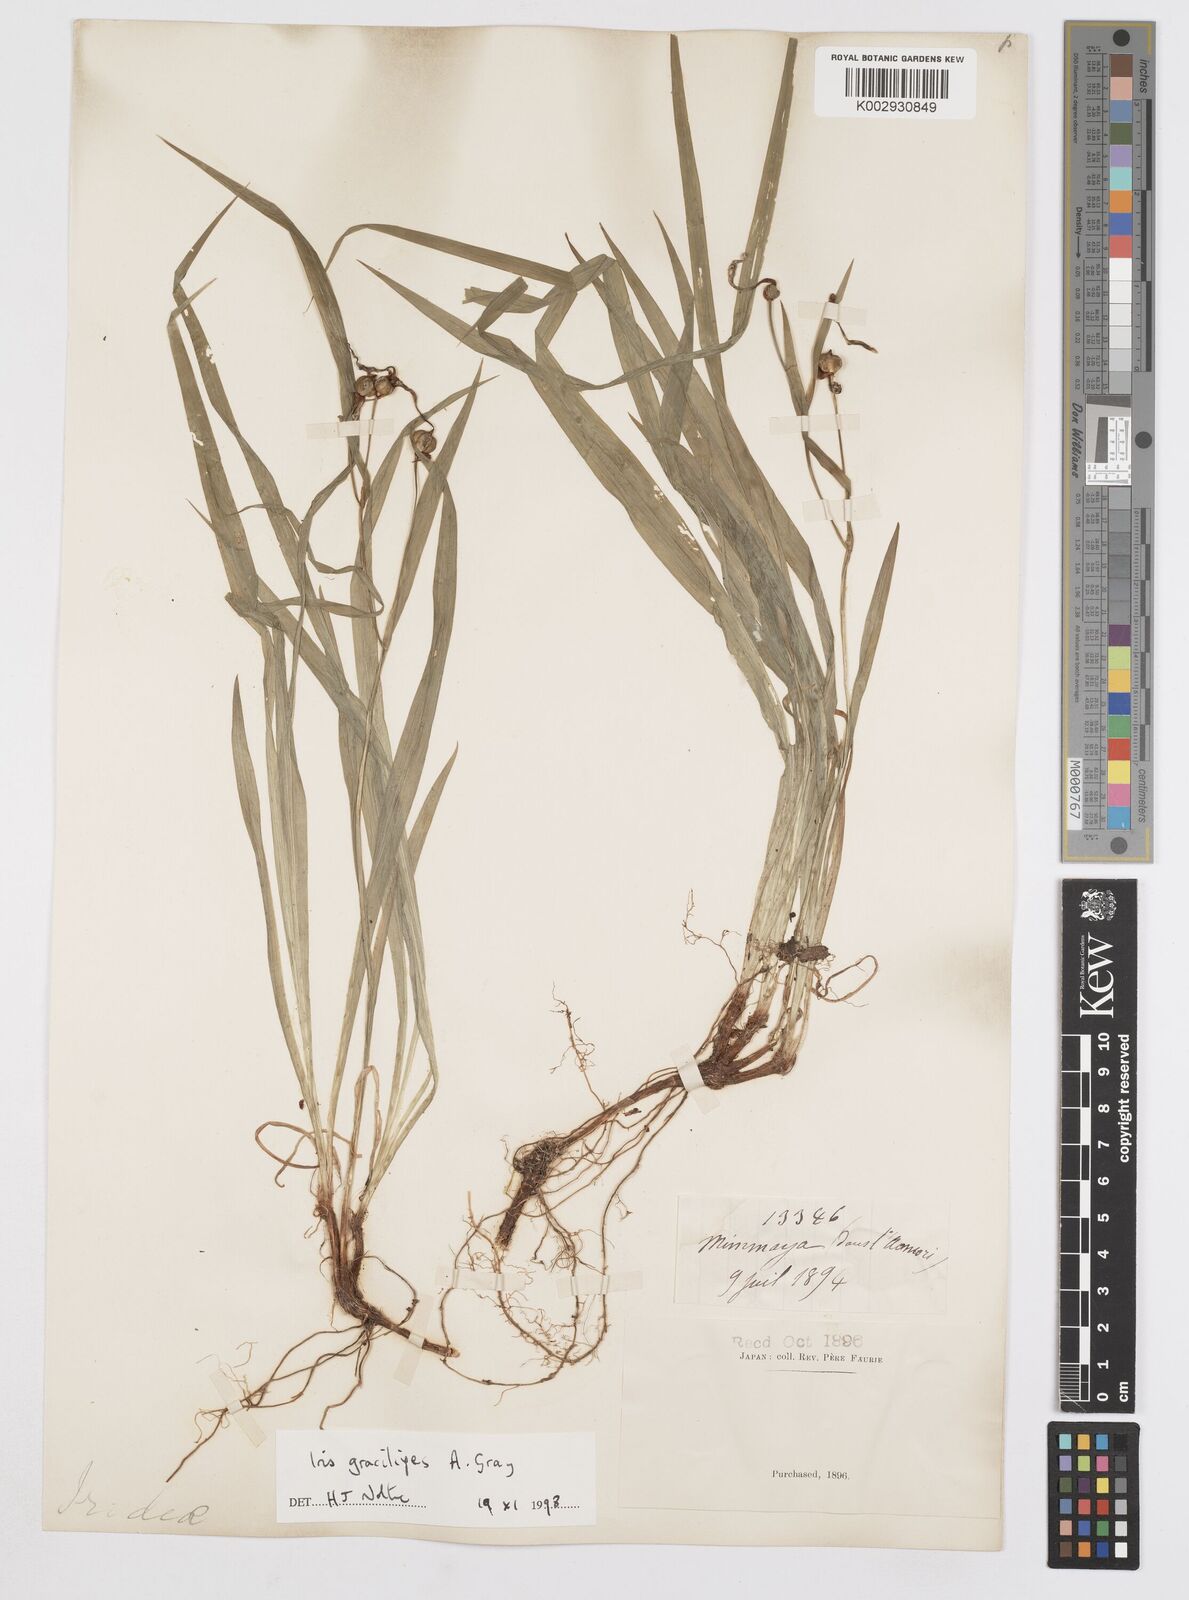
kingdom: Plantae
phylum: Tracheophyta
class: Liliopsida
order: Asparagales
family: Iridaceae
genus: Iris
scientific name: Iris gracilipes
